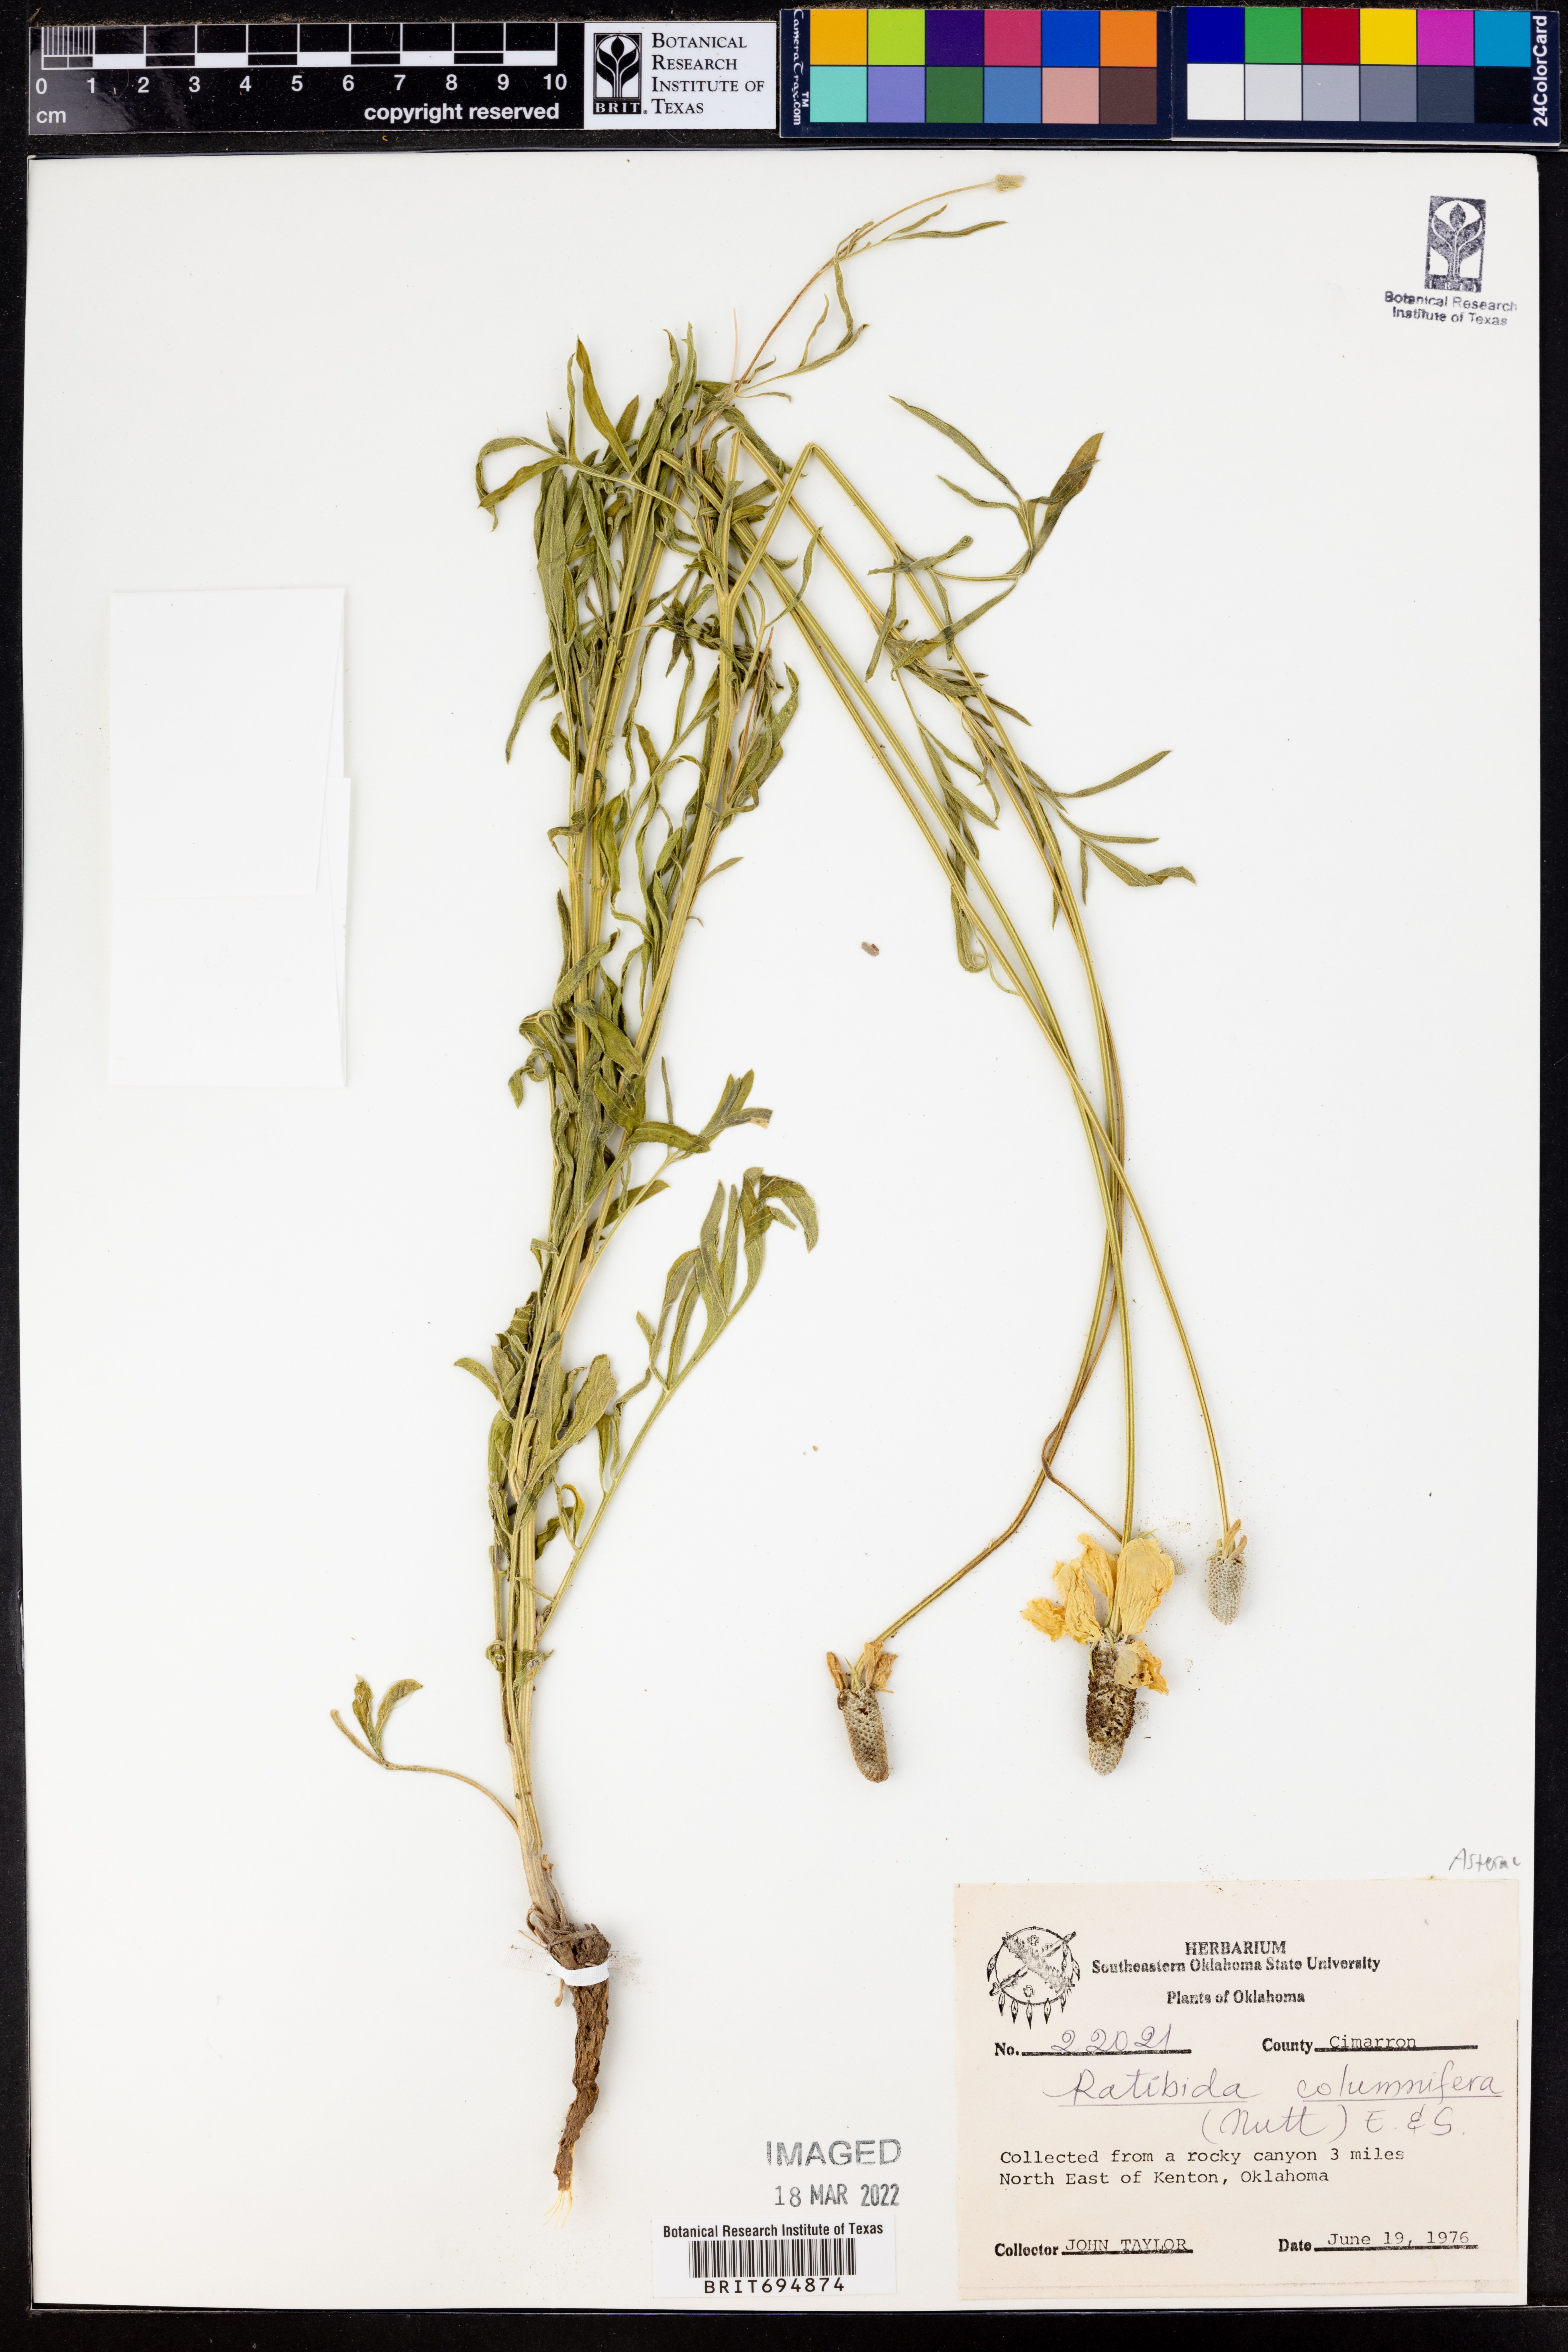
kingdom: Plantae
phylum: Tracheophyta
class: Magnoliopsida
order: Asterales
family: Asteraceae
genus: Ratibida
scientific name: Ratibida columnifera
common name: Prairie coneflower
